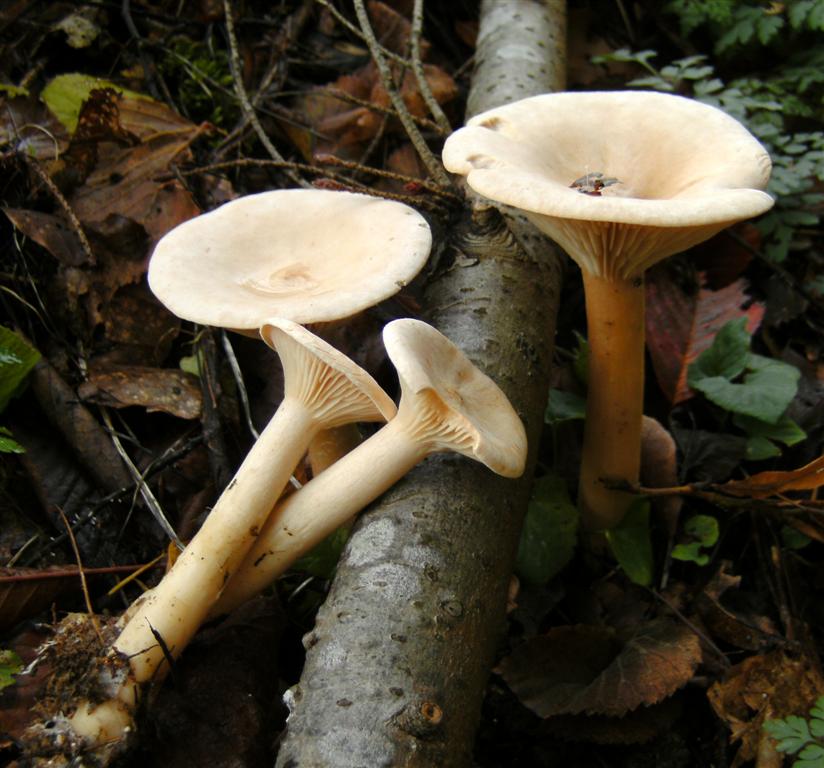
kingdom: Fungi
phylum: Basidiomycota
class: Agaricomycetes
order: Agaricales
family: Tricholomataceae
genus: Infundibulicybe
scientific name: Infundibulicybe geotropa
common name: stor tragthat
